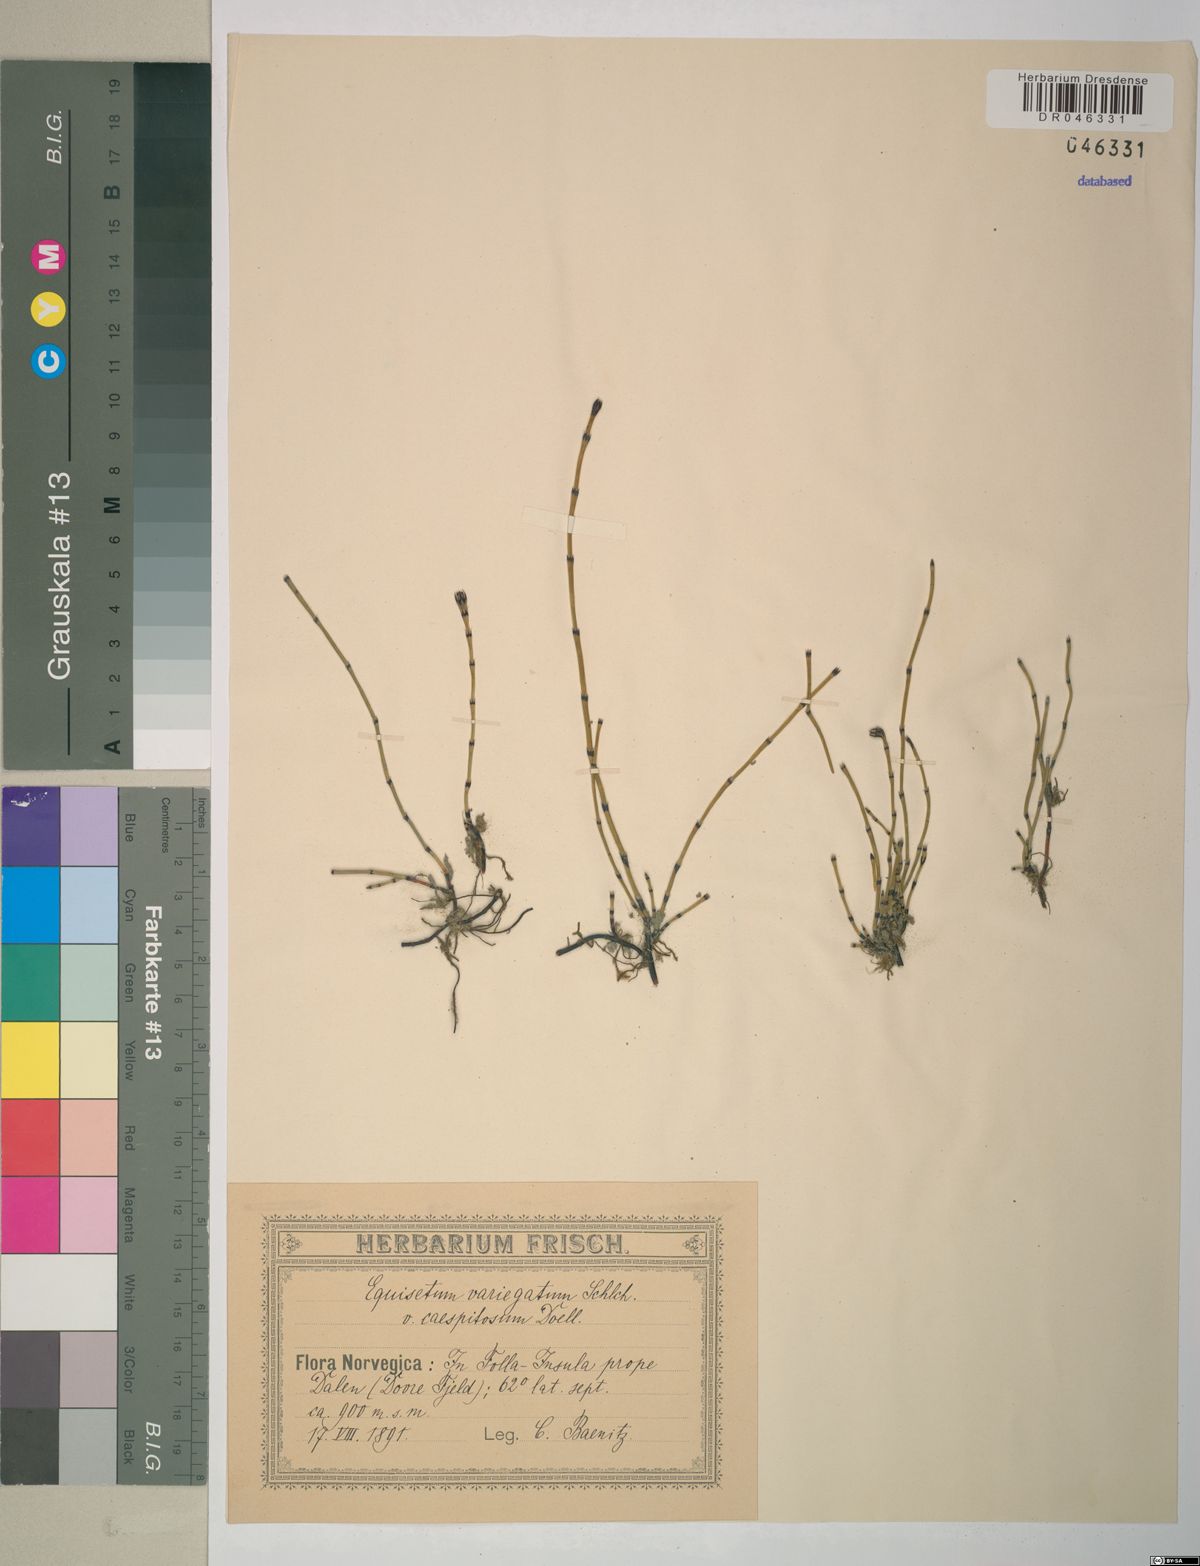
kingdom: Plantae
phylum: Tracheophyta
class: Polypodiopsida
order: Equisetales
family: Equisetaceae
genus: Equisetum
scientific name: Equisetum variegatum
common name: Variegated horsetail
